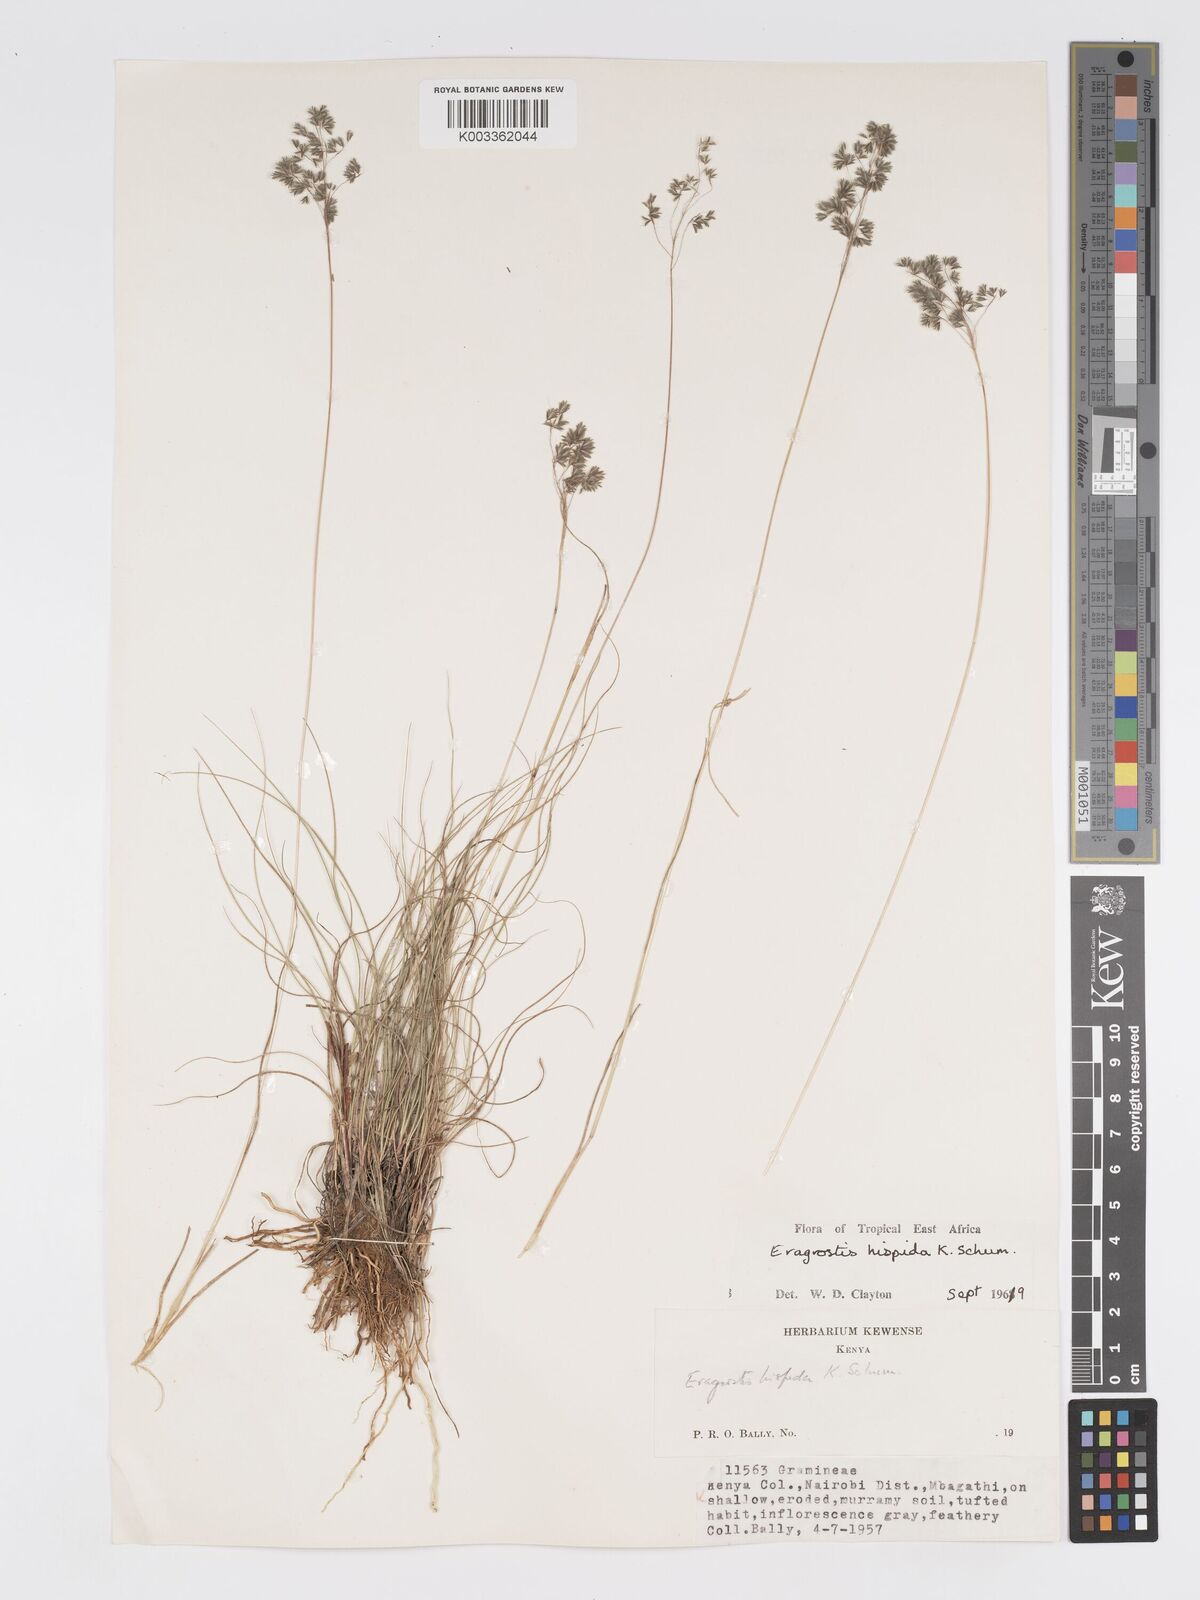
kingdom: Plantae
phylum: Tracheophyta
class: Liliopsida
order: Poales
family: Poaceae
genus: Eragrostis
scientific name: Eragrostis hispida
